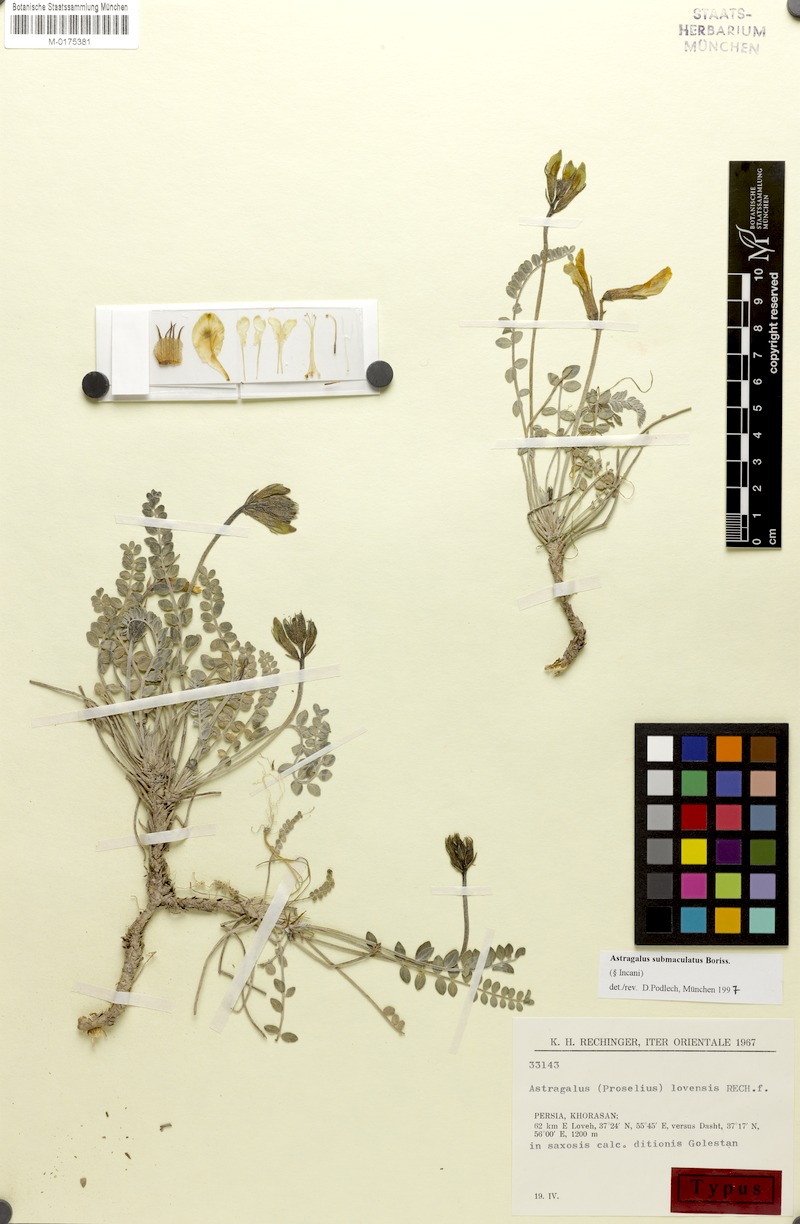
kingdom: Plantae
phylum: Tracheophyta
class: Magnoliopsida
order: Fabales
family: Fabaceae
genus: Astragalus
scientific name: Astragalus submaculatus
